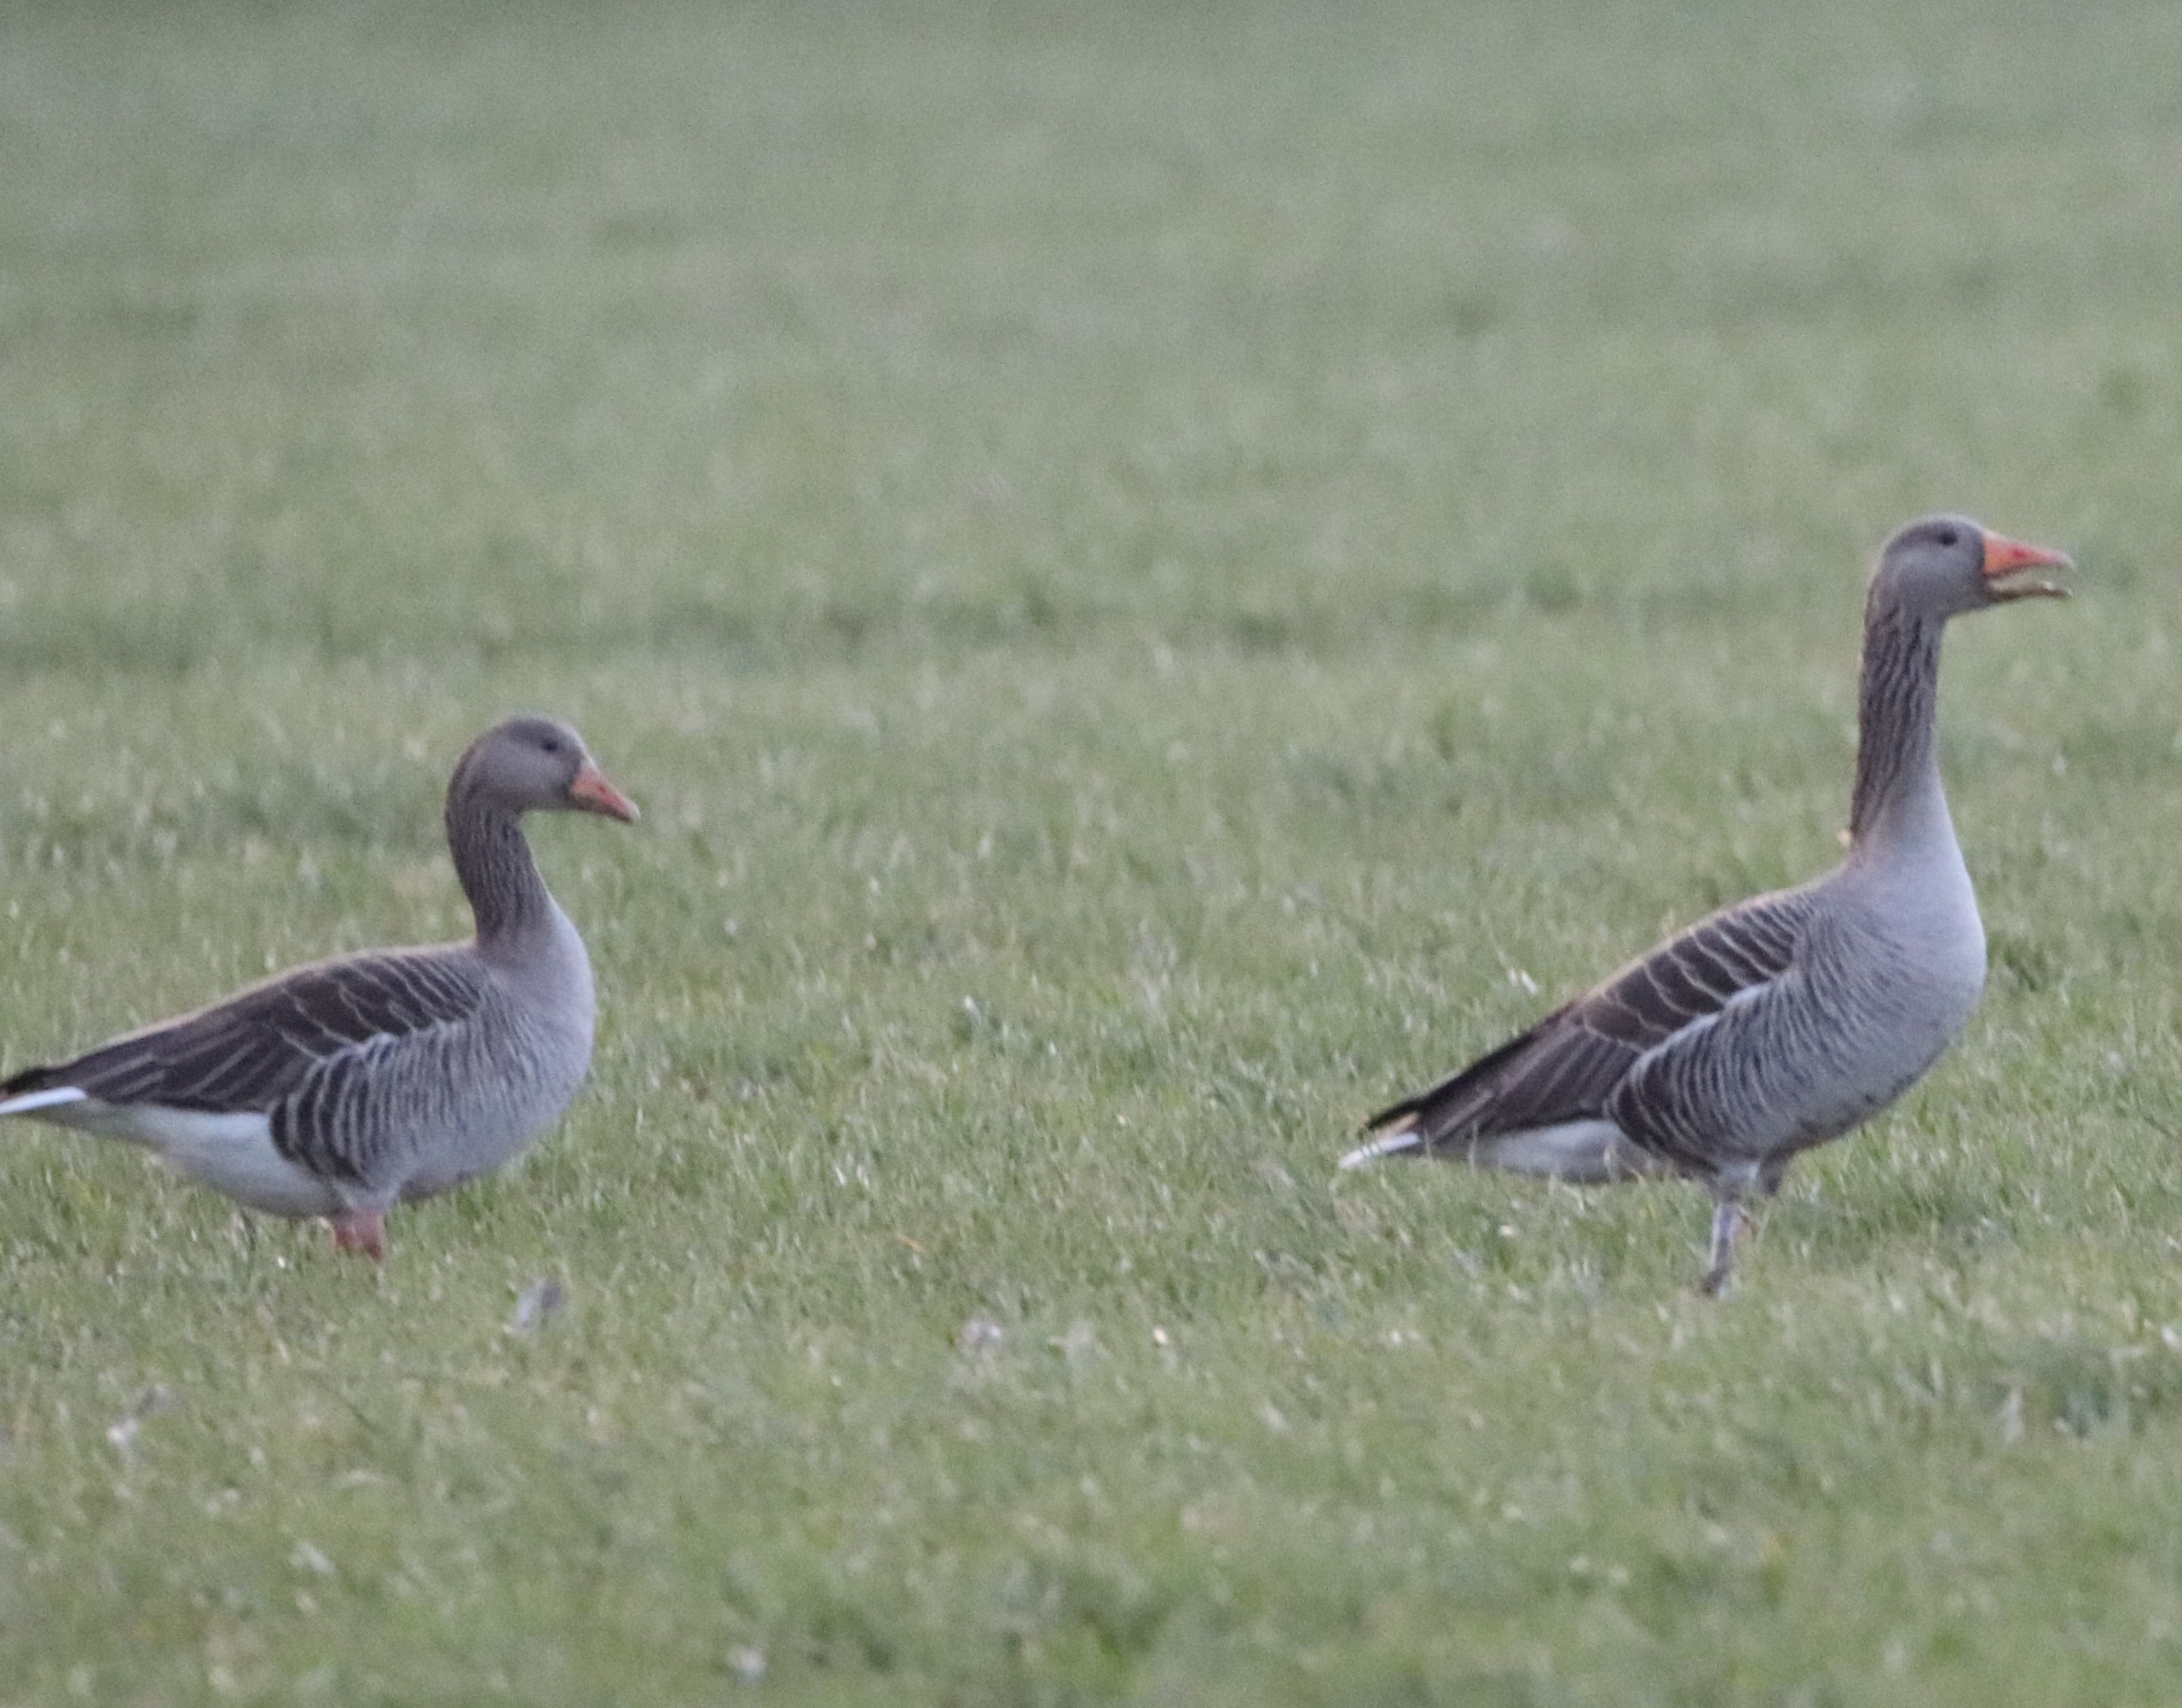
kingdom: Animalia
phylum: Chordata
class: Aves
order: Anseriformes
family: Anatidae
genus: Anser
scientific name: Anser anser
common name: Grågås
